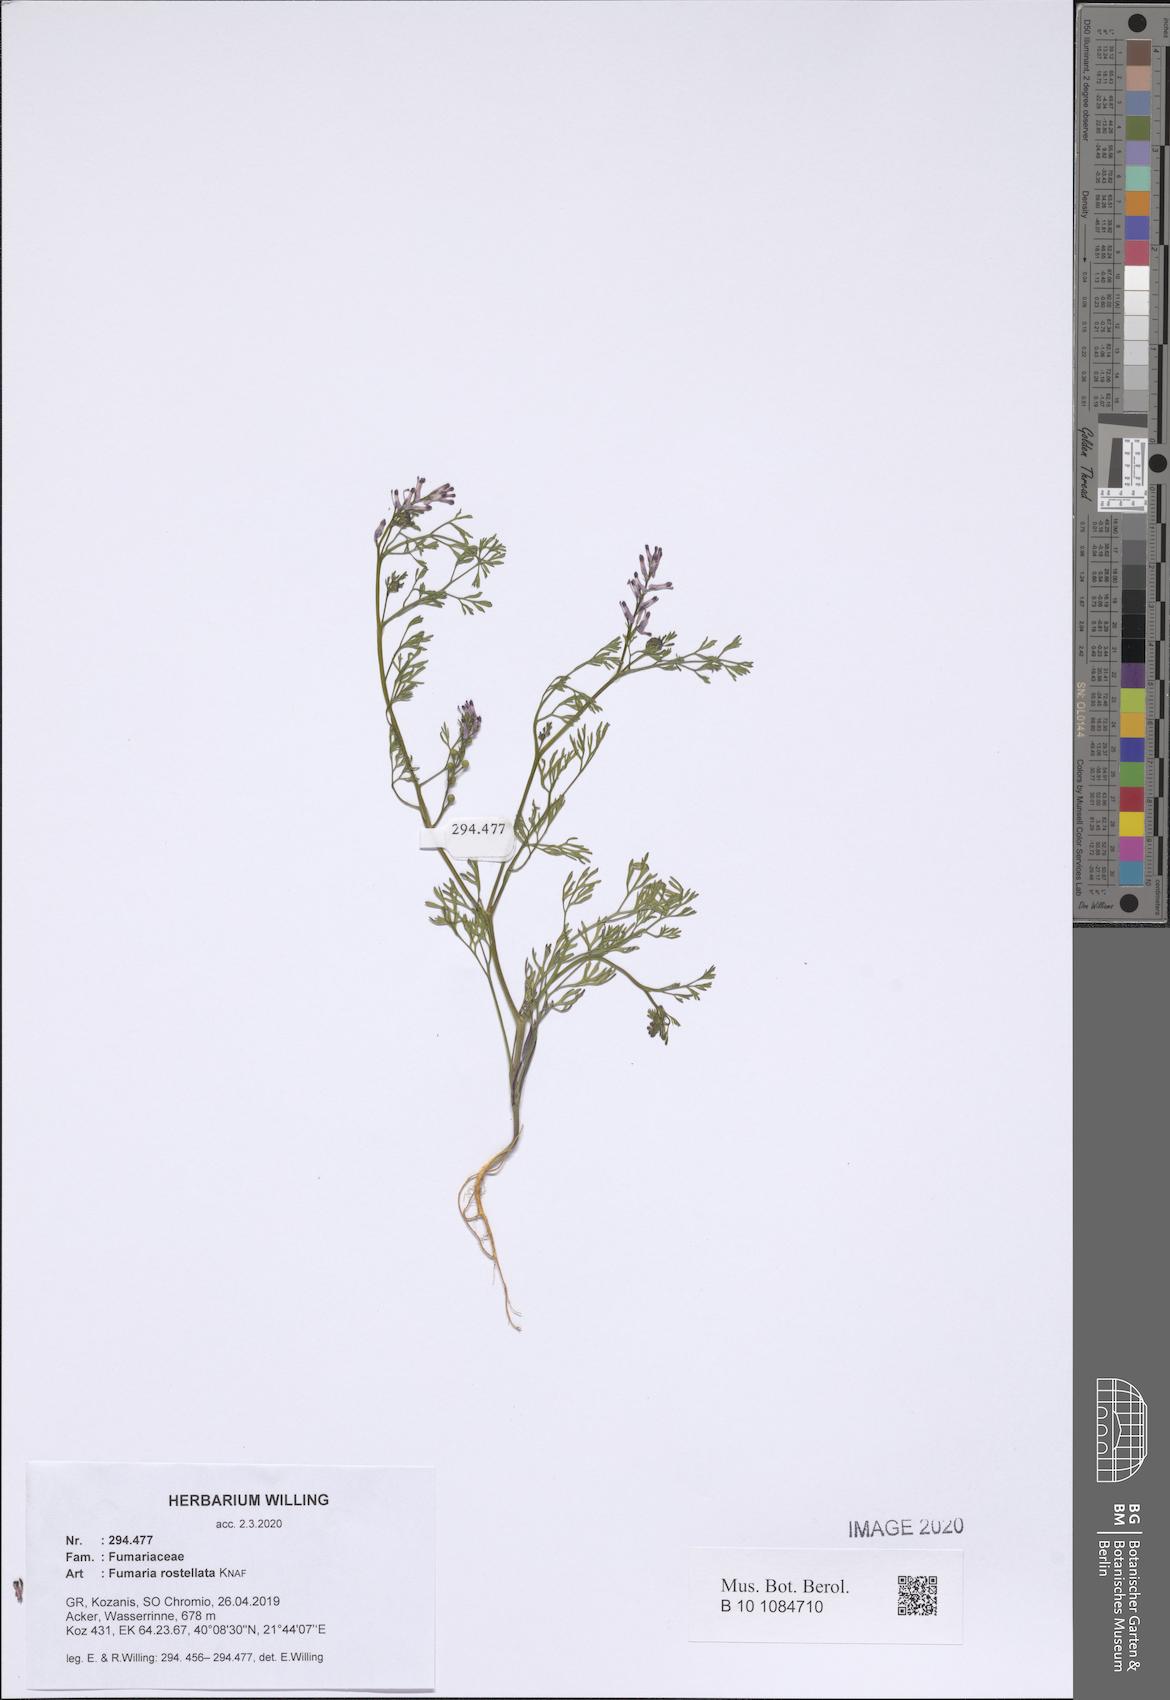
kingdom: Plantae
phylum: Tracheophyta
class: Magnoliopsida
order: Ranunculales
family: Papaveraceae
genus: Fumaria
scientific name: Fumaria rostellata
